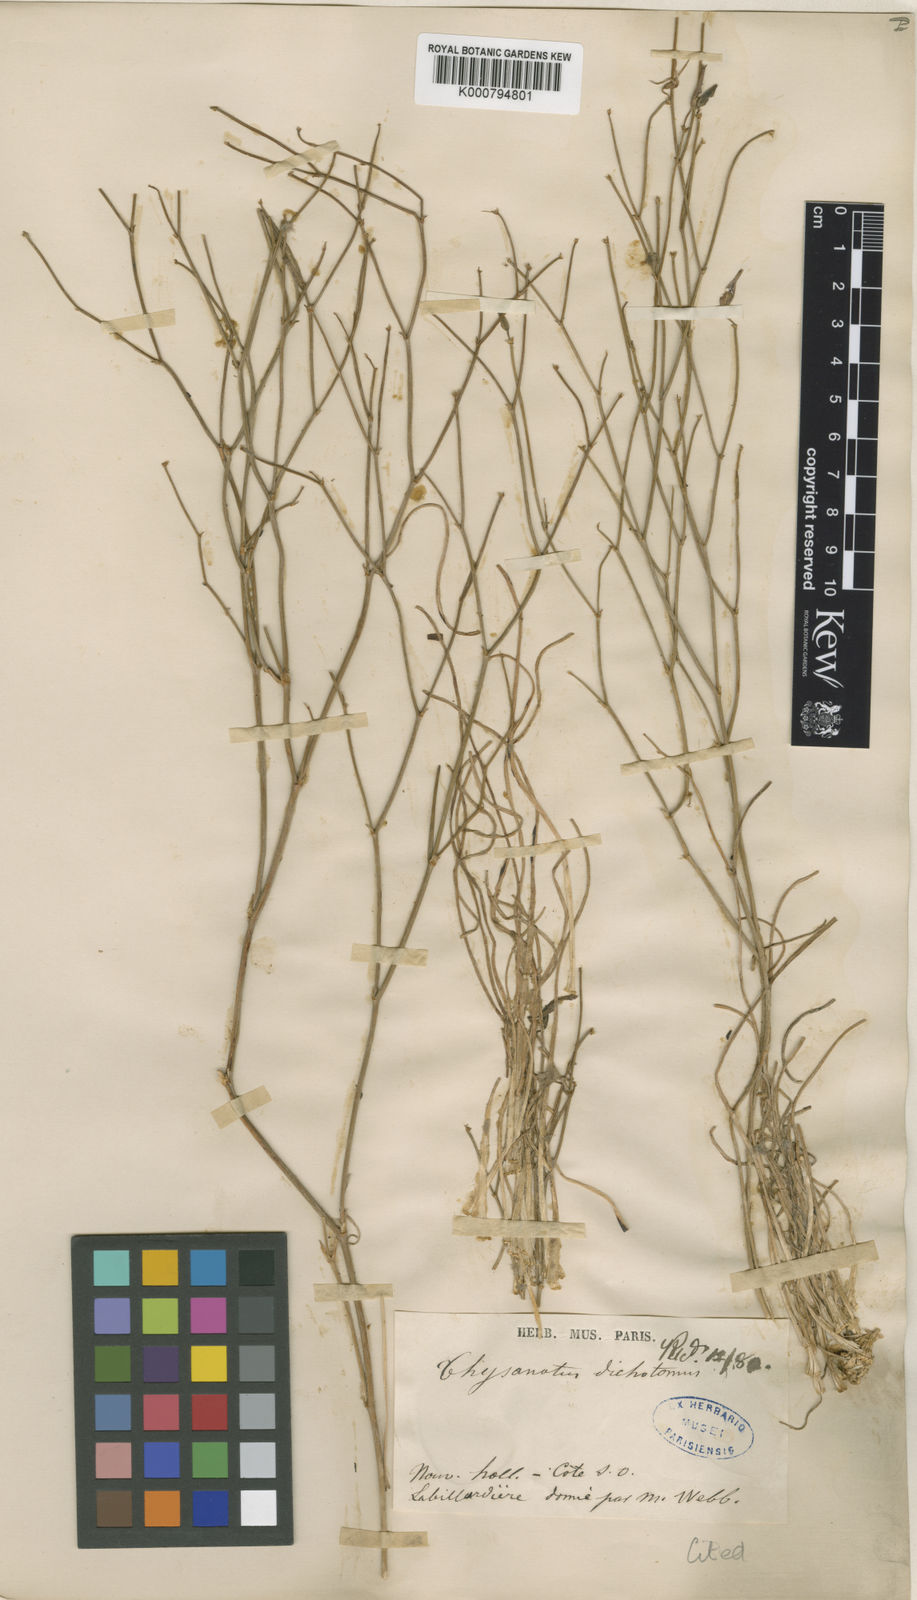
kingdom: Plantae
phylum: Tracheophyta
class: Liliopsida
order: Asparagales
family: Asparagaceae
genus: Thysanotus
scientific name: Thysanotus dichotomus
